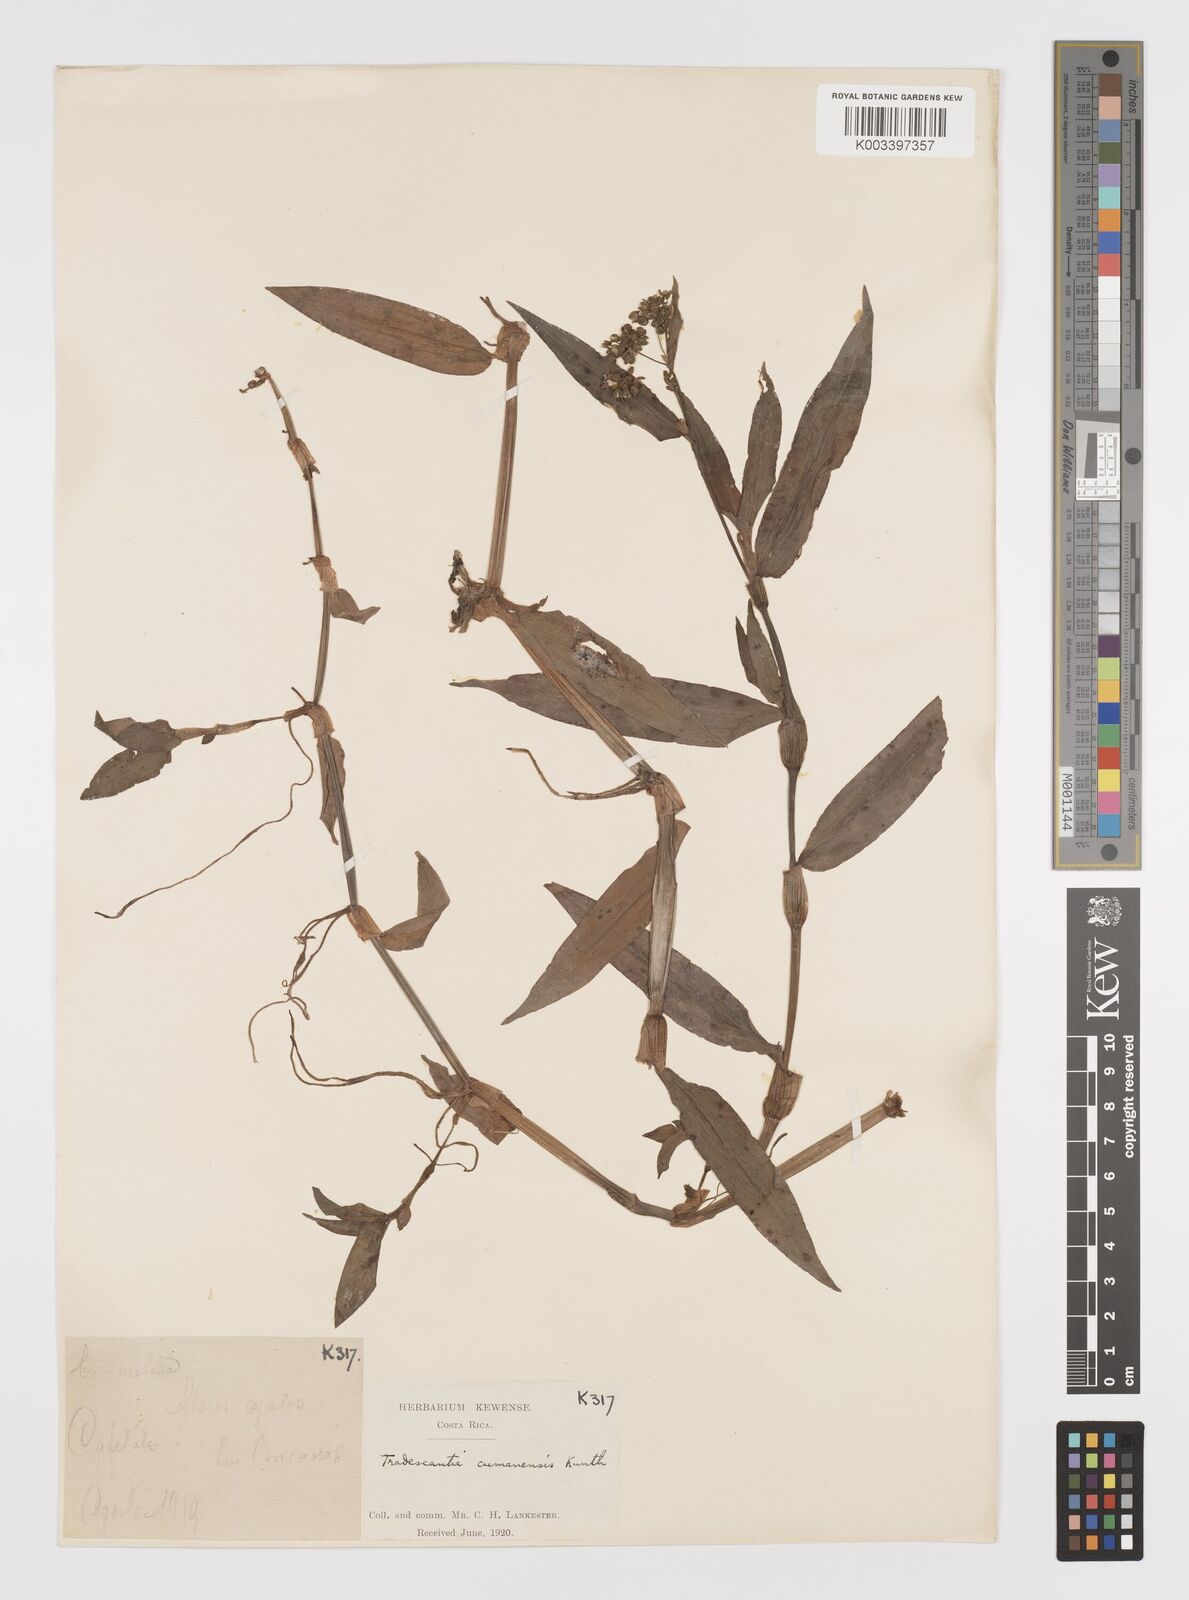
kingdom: Plantae
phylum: Tracheophyta
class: Liliopsida
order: Commelinales
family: Commelinaceae
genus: Callisia
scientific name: Callisia serrulata
